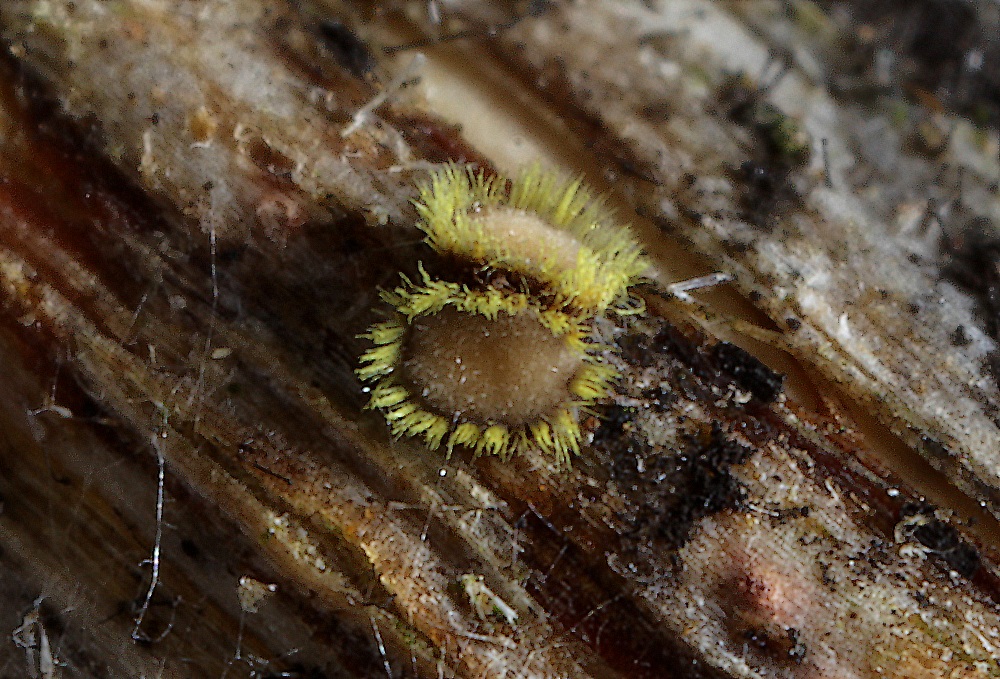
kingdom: Fungi
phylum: Ascomycota
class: Leotiomycetes
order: Helotiales
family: Lachnaceae
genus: Lachnum
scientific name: Lachnum sulphureum
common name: svovlhåret frynseskive
